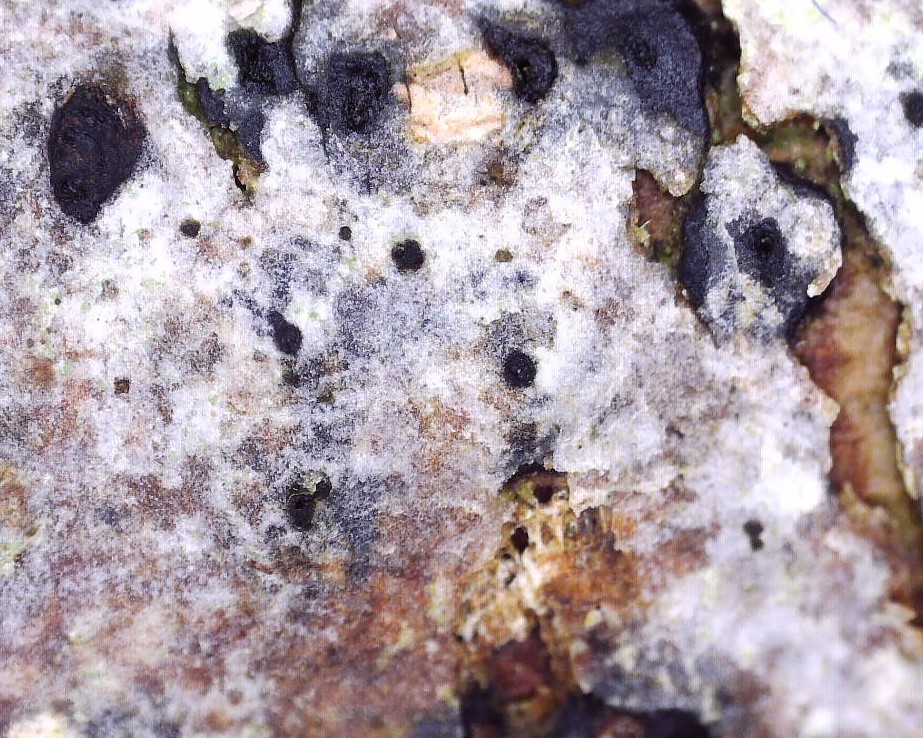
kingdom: Fungi
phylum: Ascomycota
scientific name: Ascomycota
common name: sæksvampe
